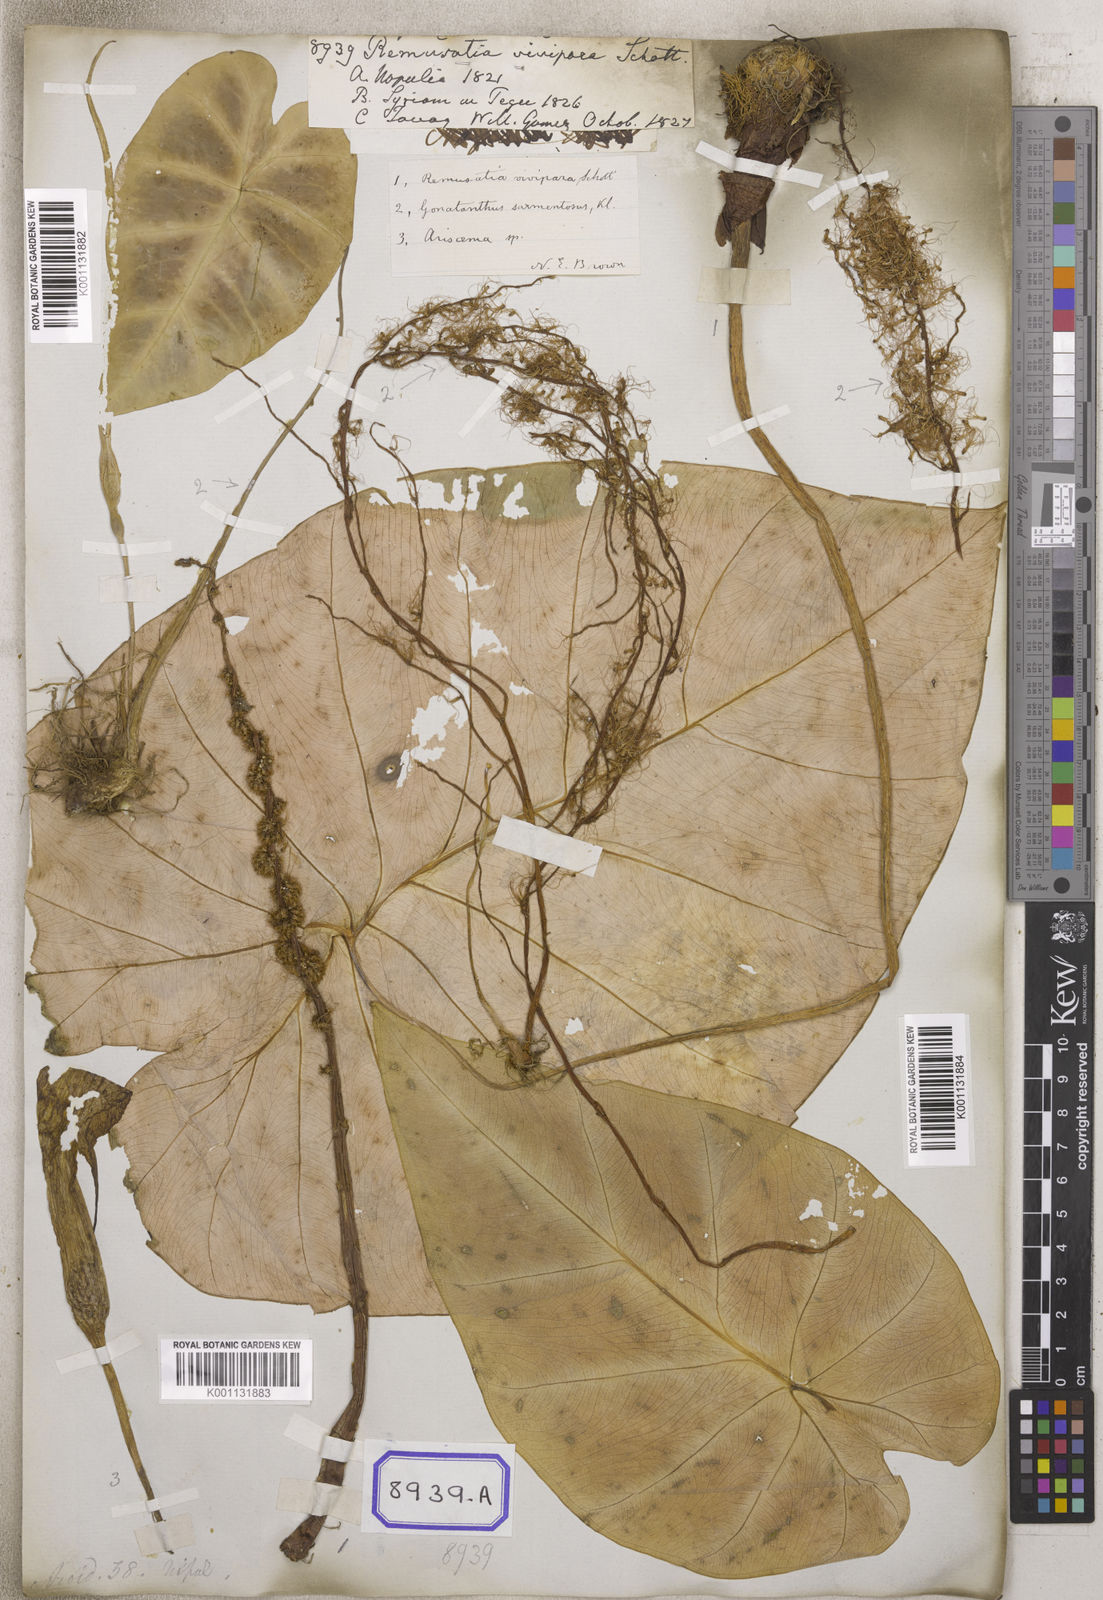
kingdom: Plantae
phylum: Tracheophyta
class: Liliopsida
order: Alismatales
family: Araceae
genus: Remusatia
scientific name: Remusatia vivipara
